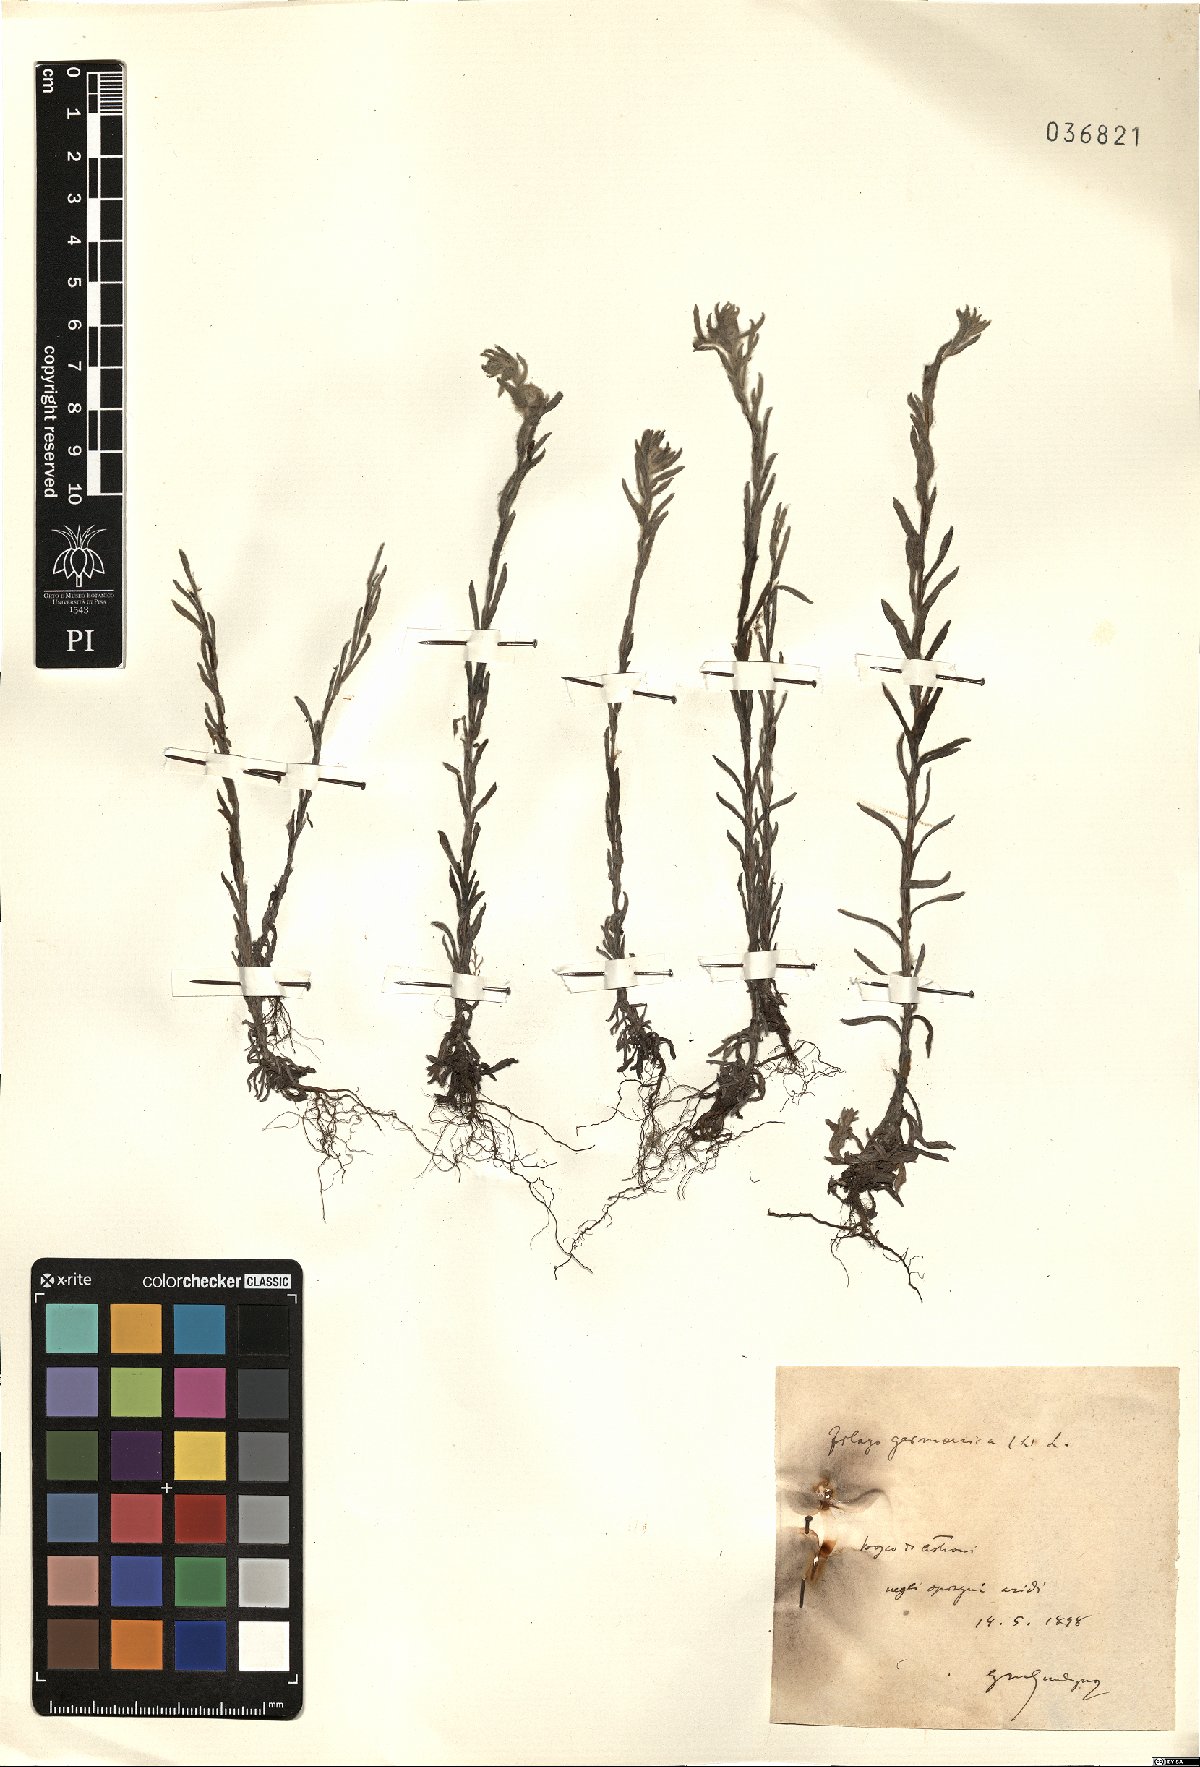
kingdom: Plantae
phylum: Tracheophyta
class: Magnoliopsida
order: Asterales
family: Asteraceae
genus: Filago
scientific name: Filago germanica
